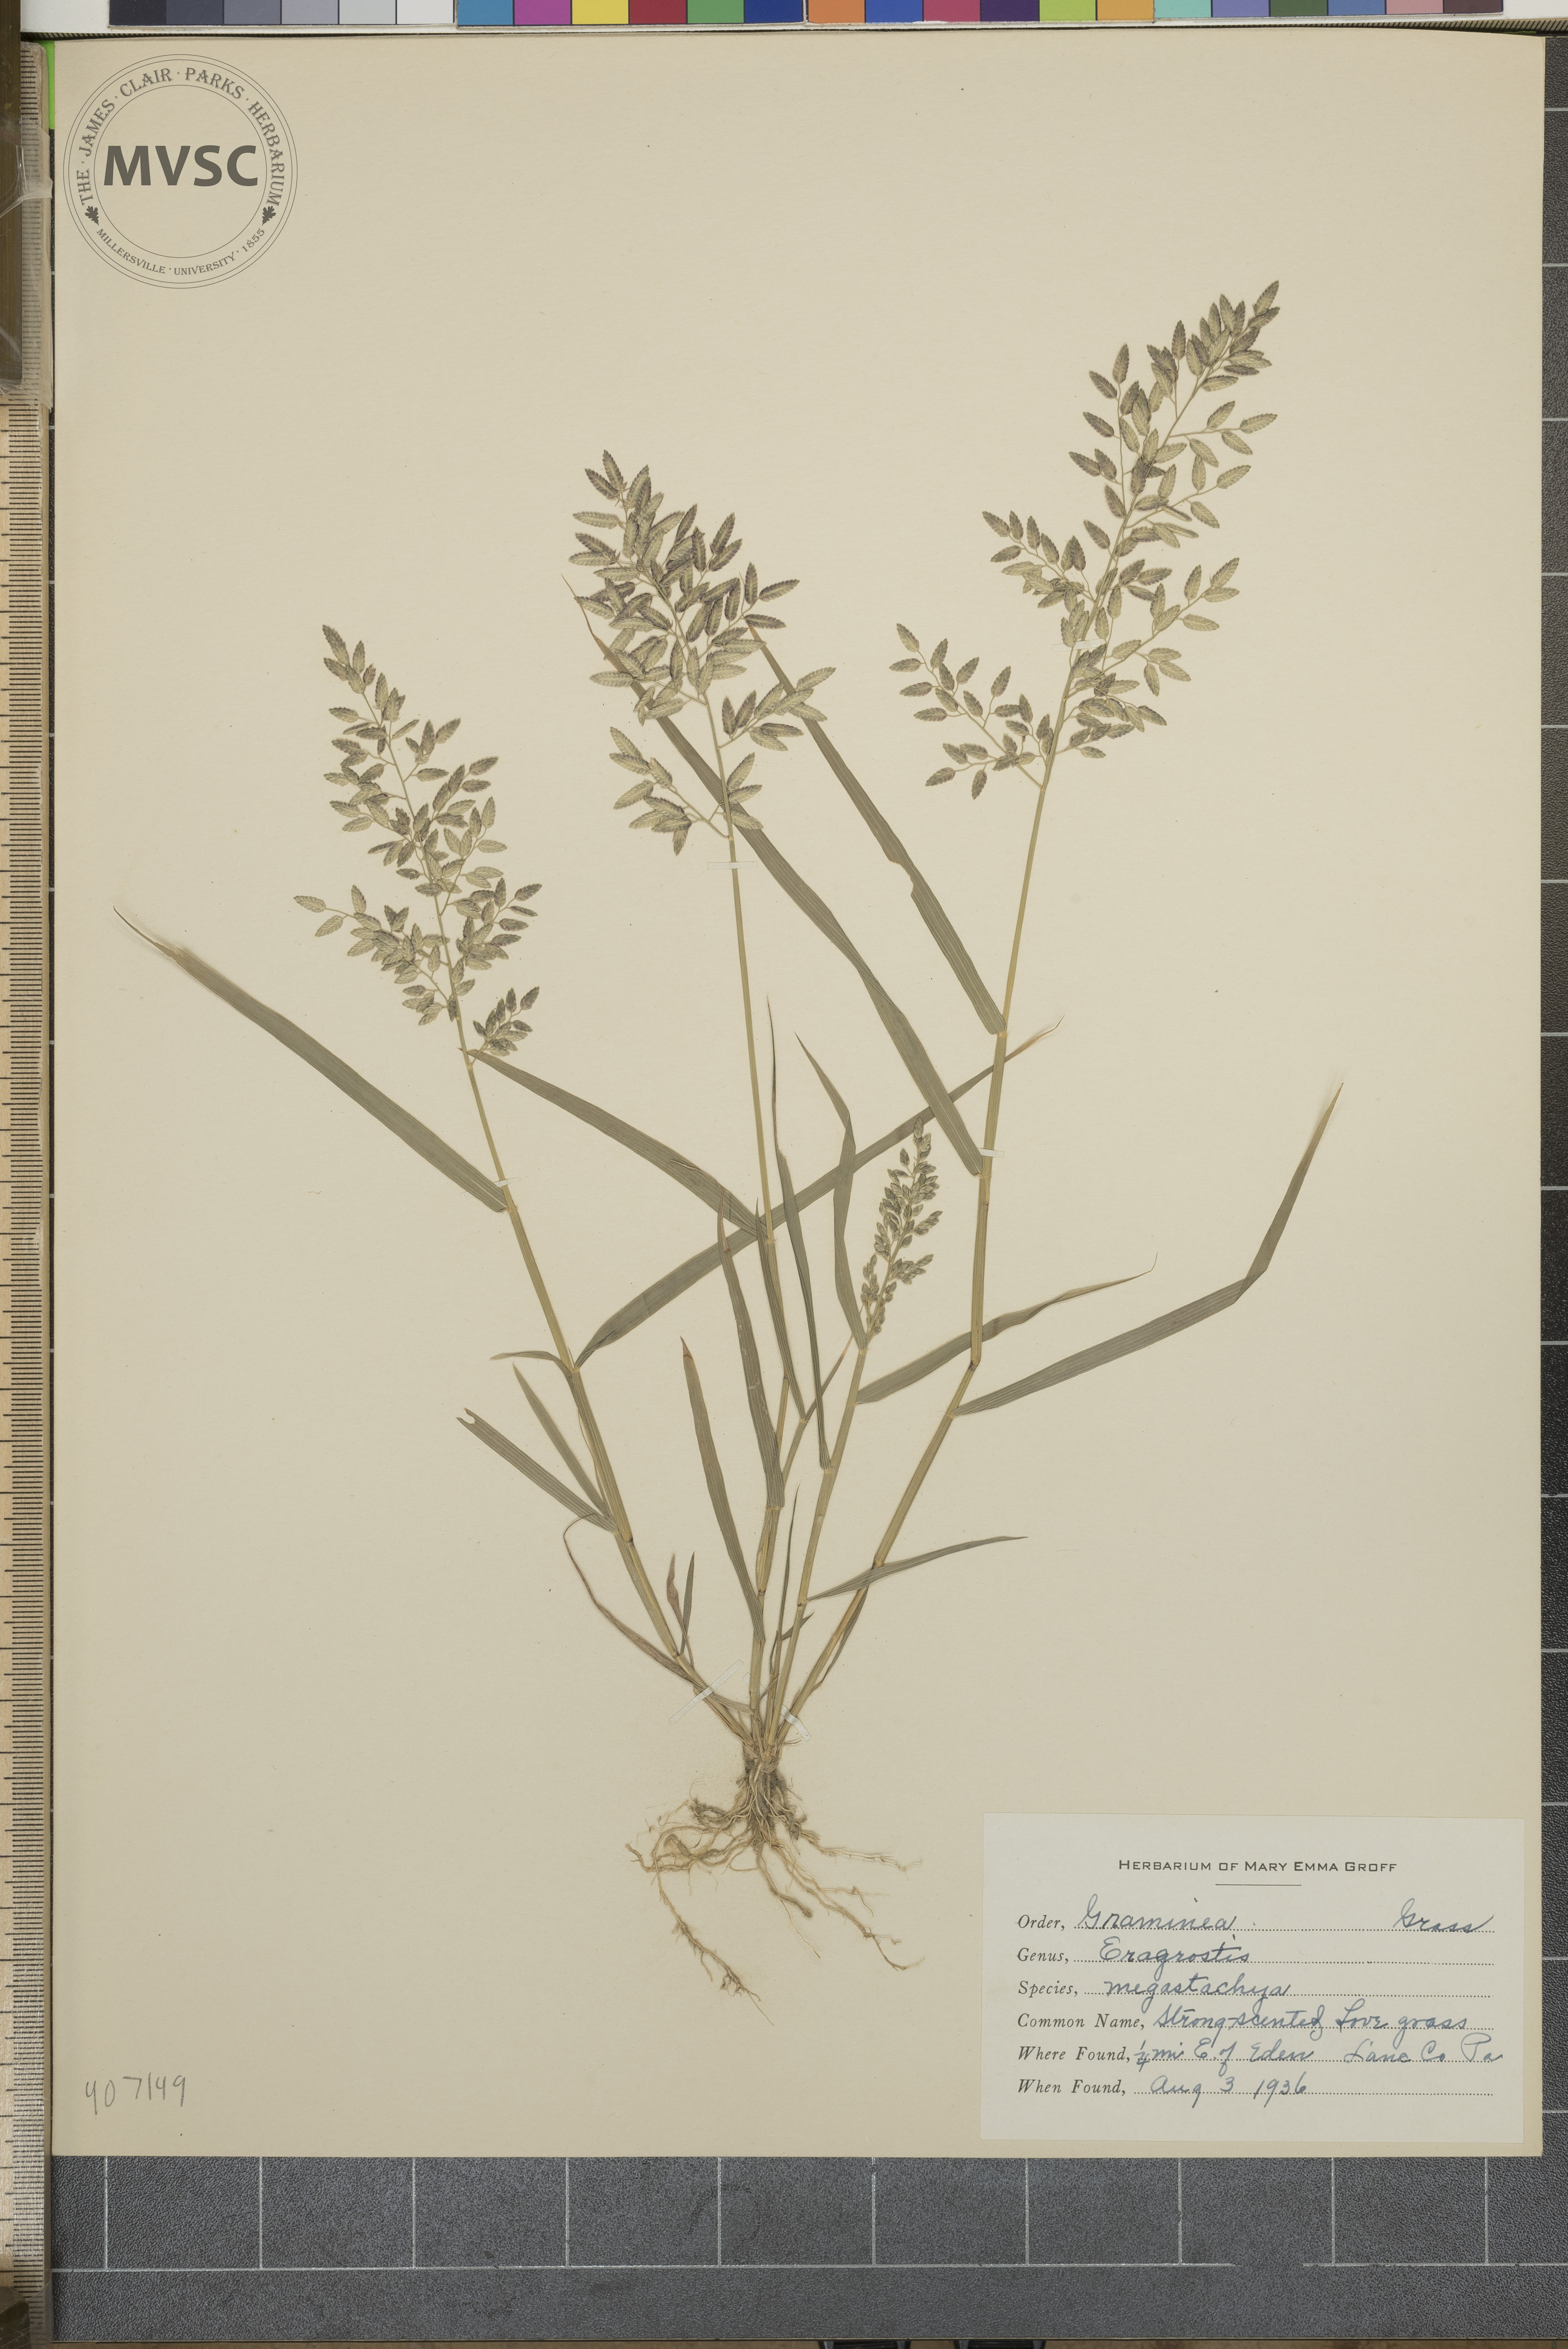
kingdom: Plantae
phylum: Tracheophyta
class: Liliopsida
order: Poales
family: Poaceae
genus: Eragrostis
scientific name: Eragrostis cilianensis
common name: Stinkgrass
